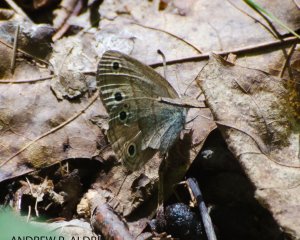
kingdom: Animalia
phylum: Arthropoda
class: Insecta
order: Lepidoptera
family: Nymphalidae
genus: Euptychia
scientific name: Euptychia cymela
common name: Little Wood Satyr
